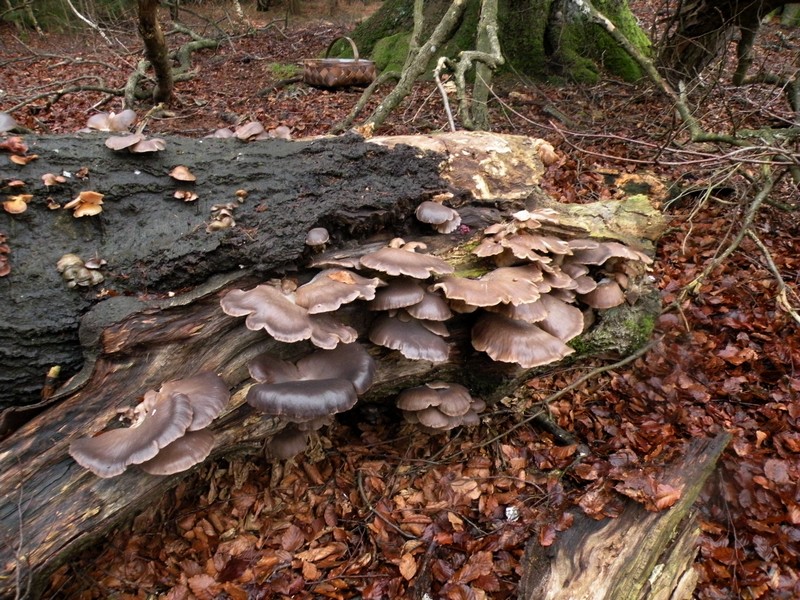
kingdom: Fungi
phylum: Basidiomycota
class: Agaricomycetes
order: Agaricales
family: Pleurotaceae
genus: Pleurotus
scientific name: Pleurotus ostreatus
